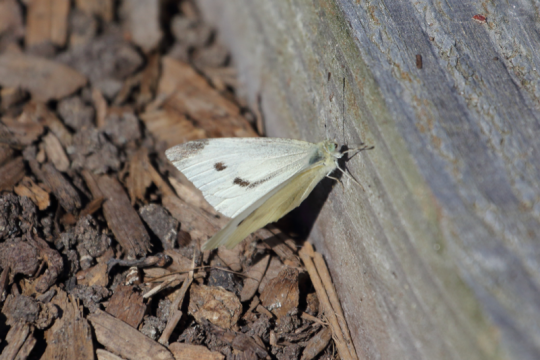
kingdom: Animalia
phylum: Arthropoda
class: Insecta
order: Lepidoptera
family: Pieridae
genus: Pieris
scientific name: Pieris rapae
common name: Cabbage White
